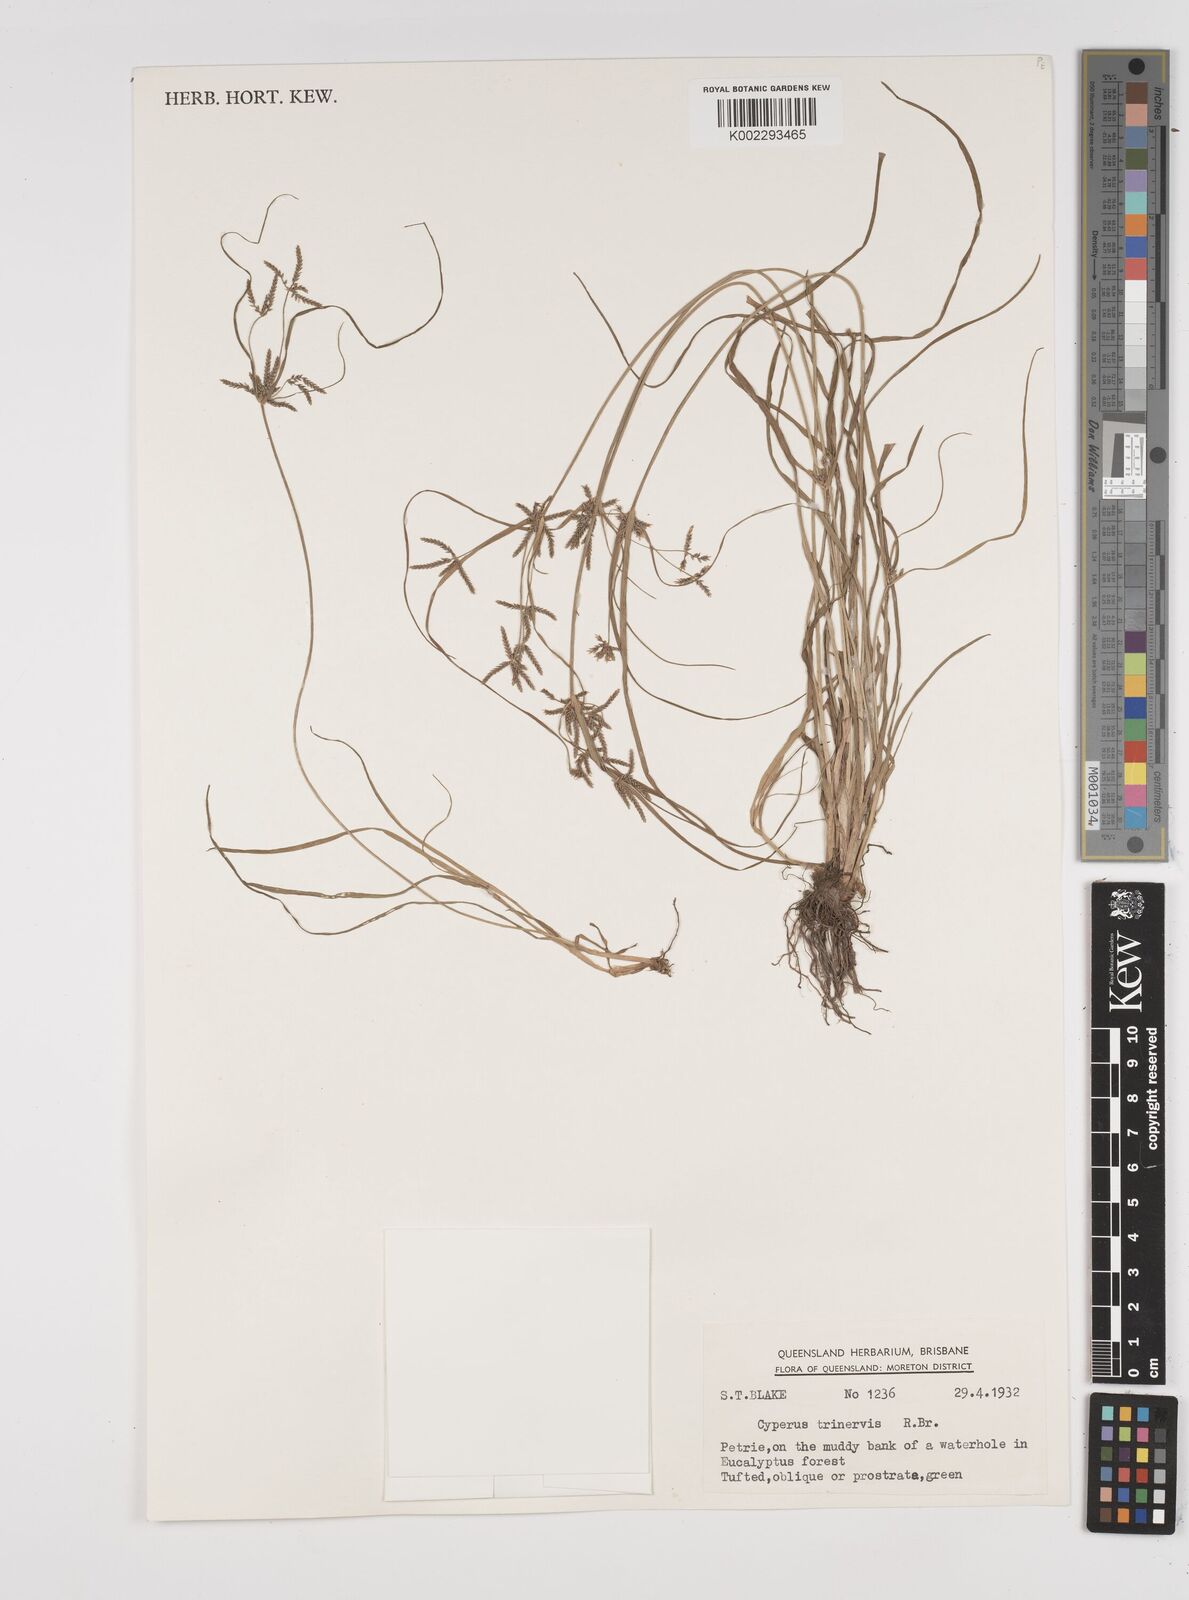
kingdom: Plantae
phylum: Tracheophyta
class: Liliopsida
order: Poales
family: Cyperaceae
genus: Cyperus
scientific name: Cyperus trinervis
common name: Australian flatsedge
